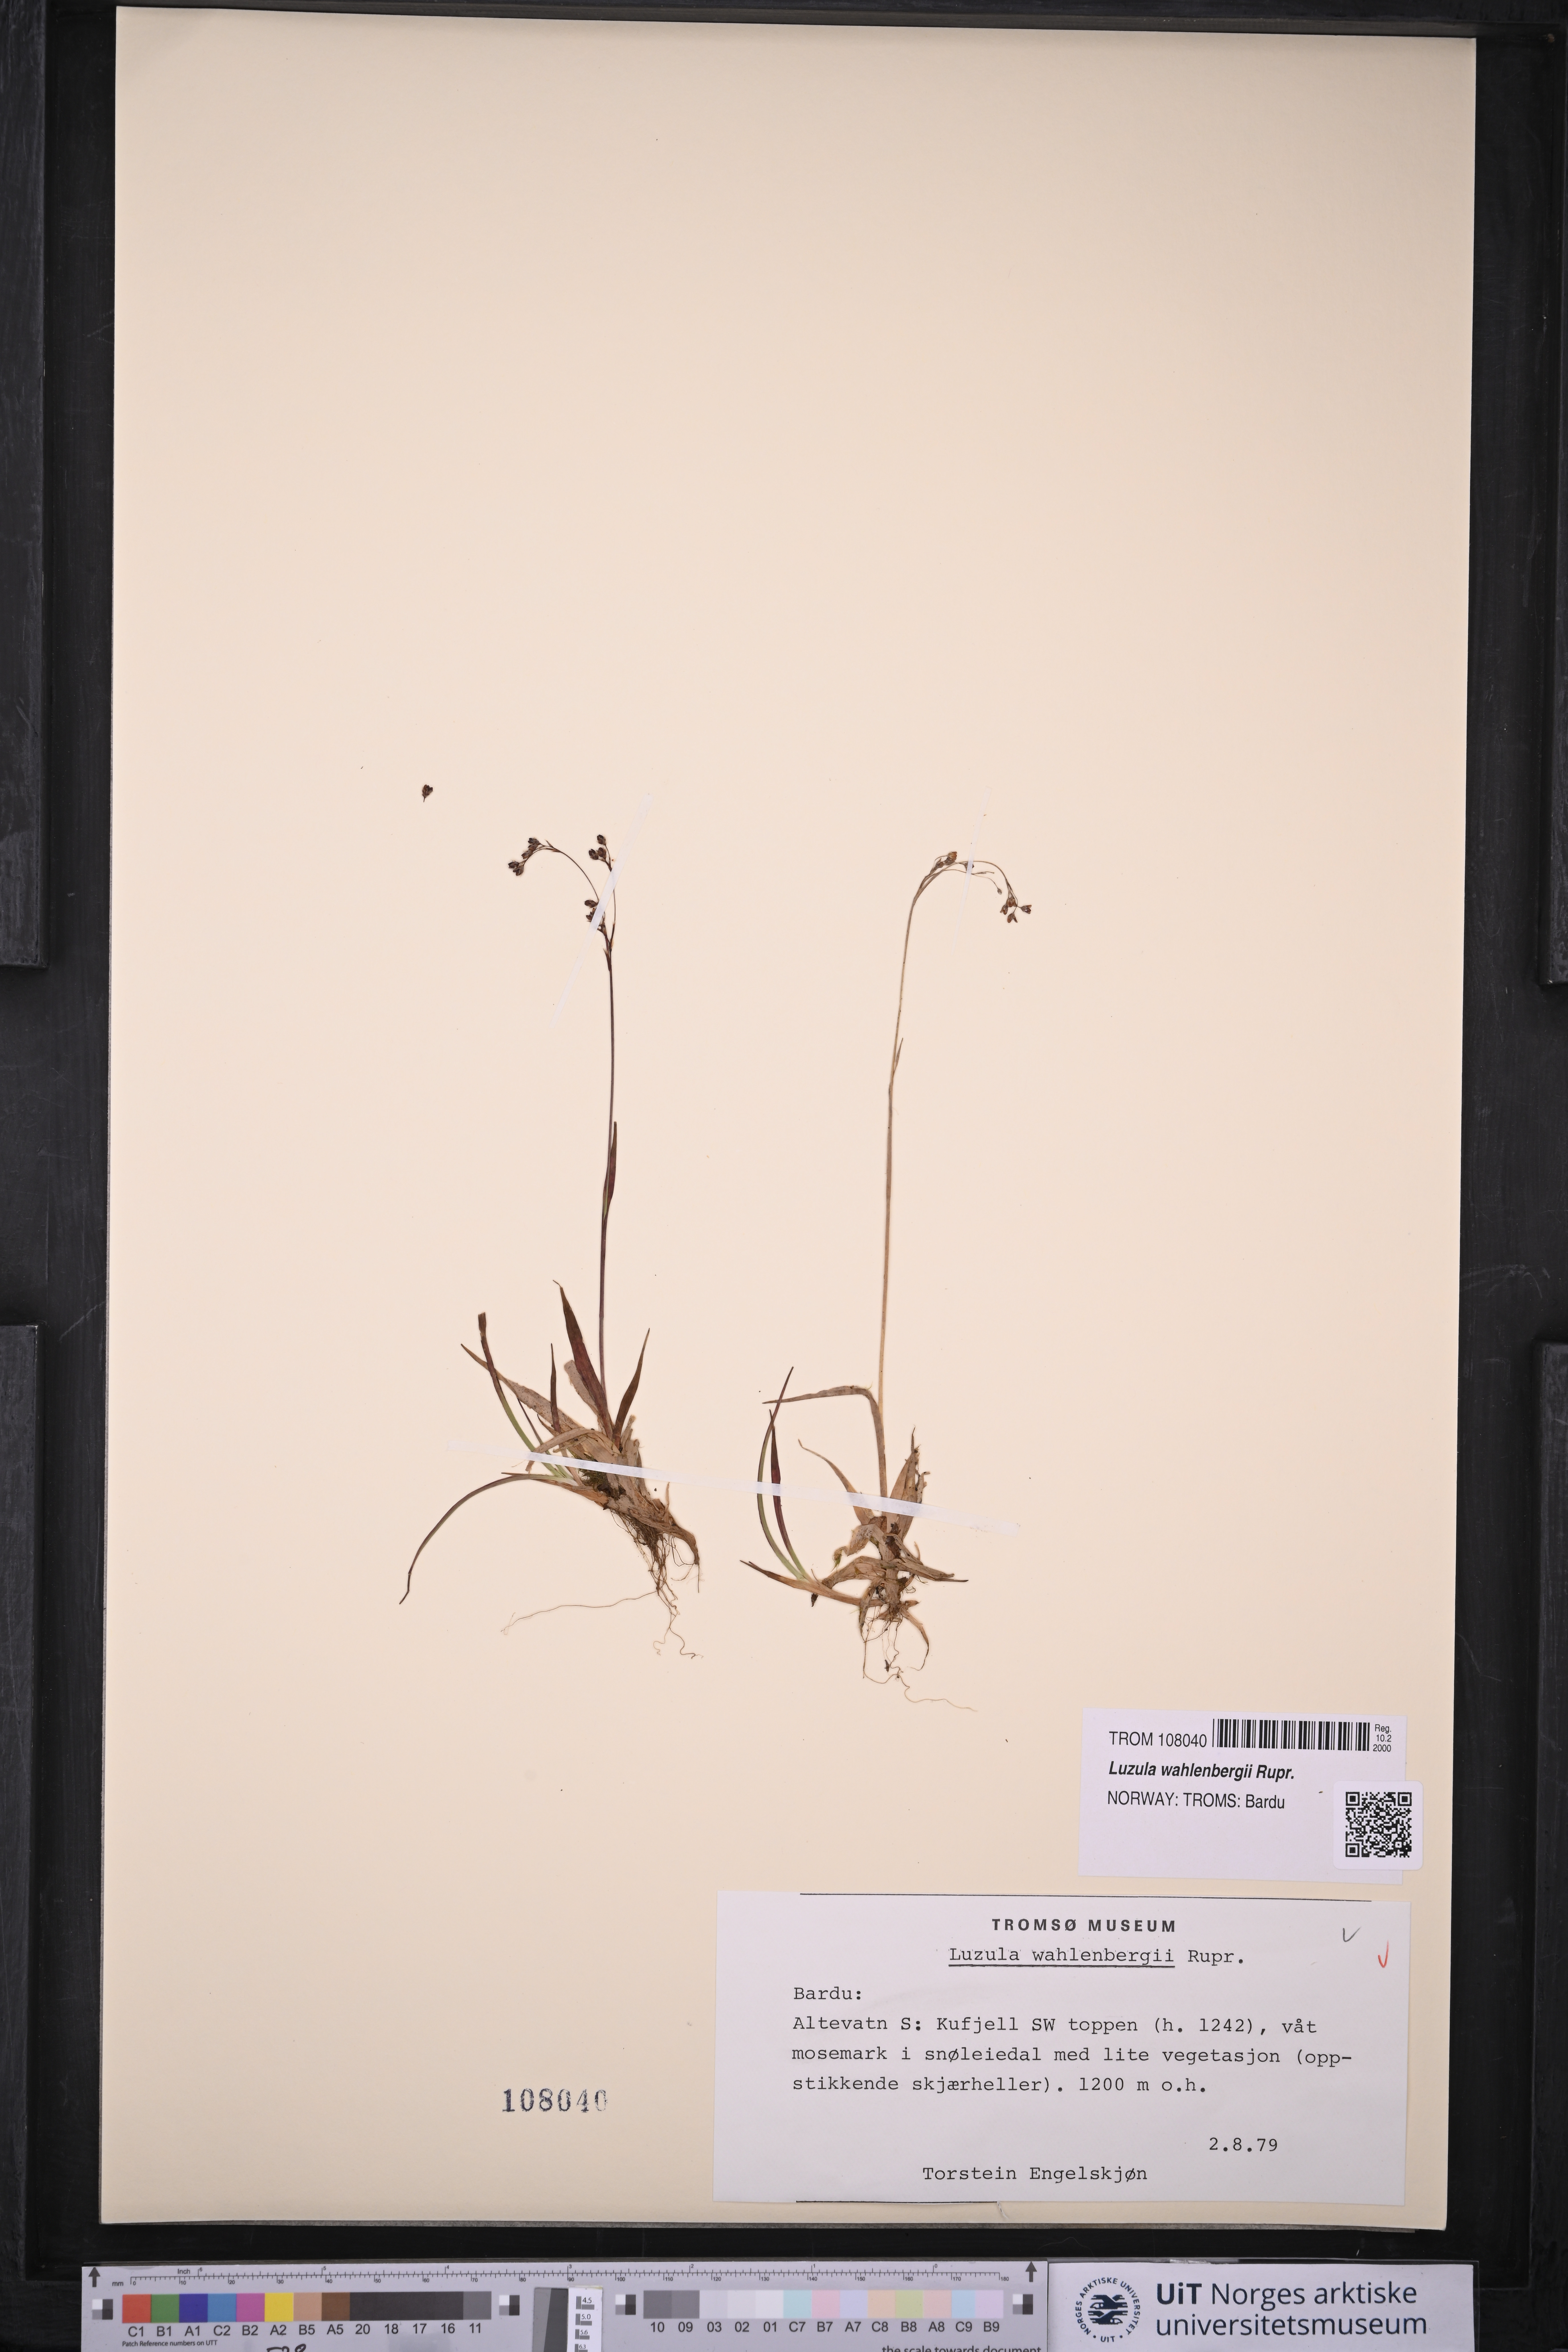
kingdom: Plantae
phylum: Tracheophyta
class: Liliopsida
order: Poales
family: Juncaceae
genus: Luzula
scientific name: Luzula wahlenbergii
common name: Wahlenberg's wood-rush
